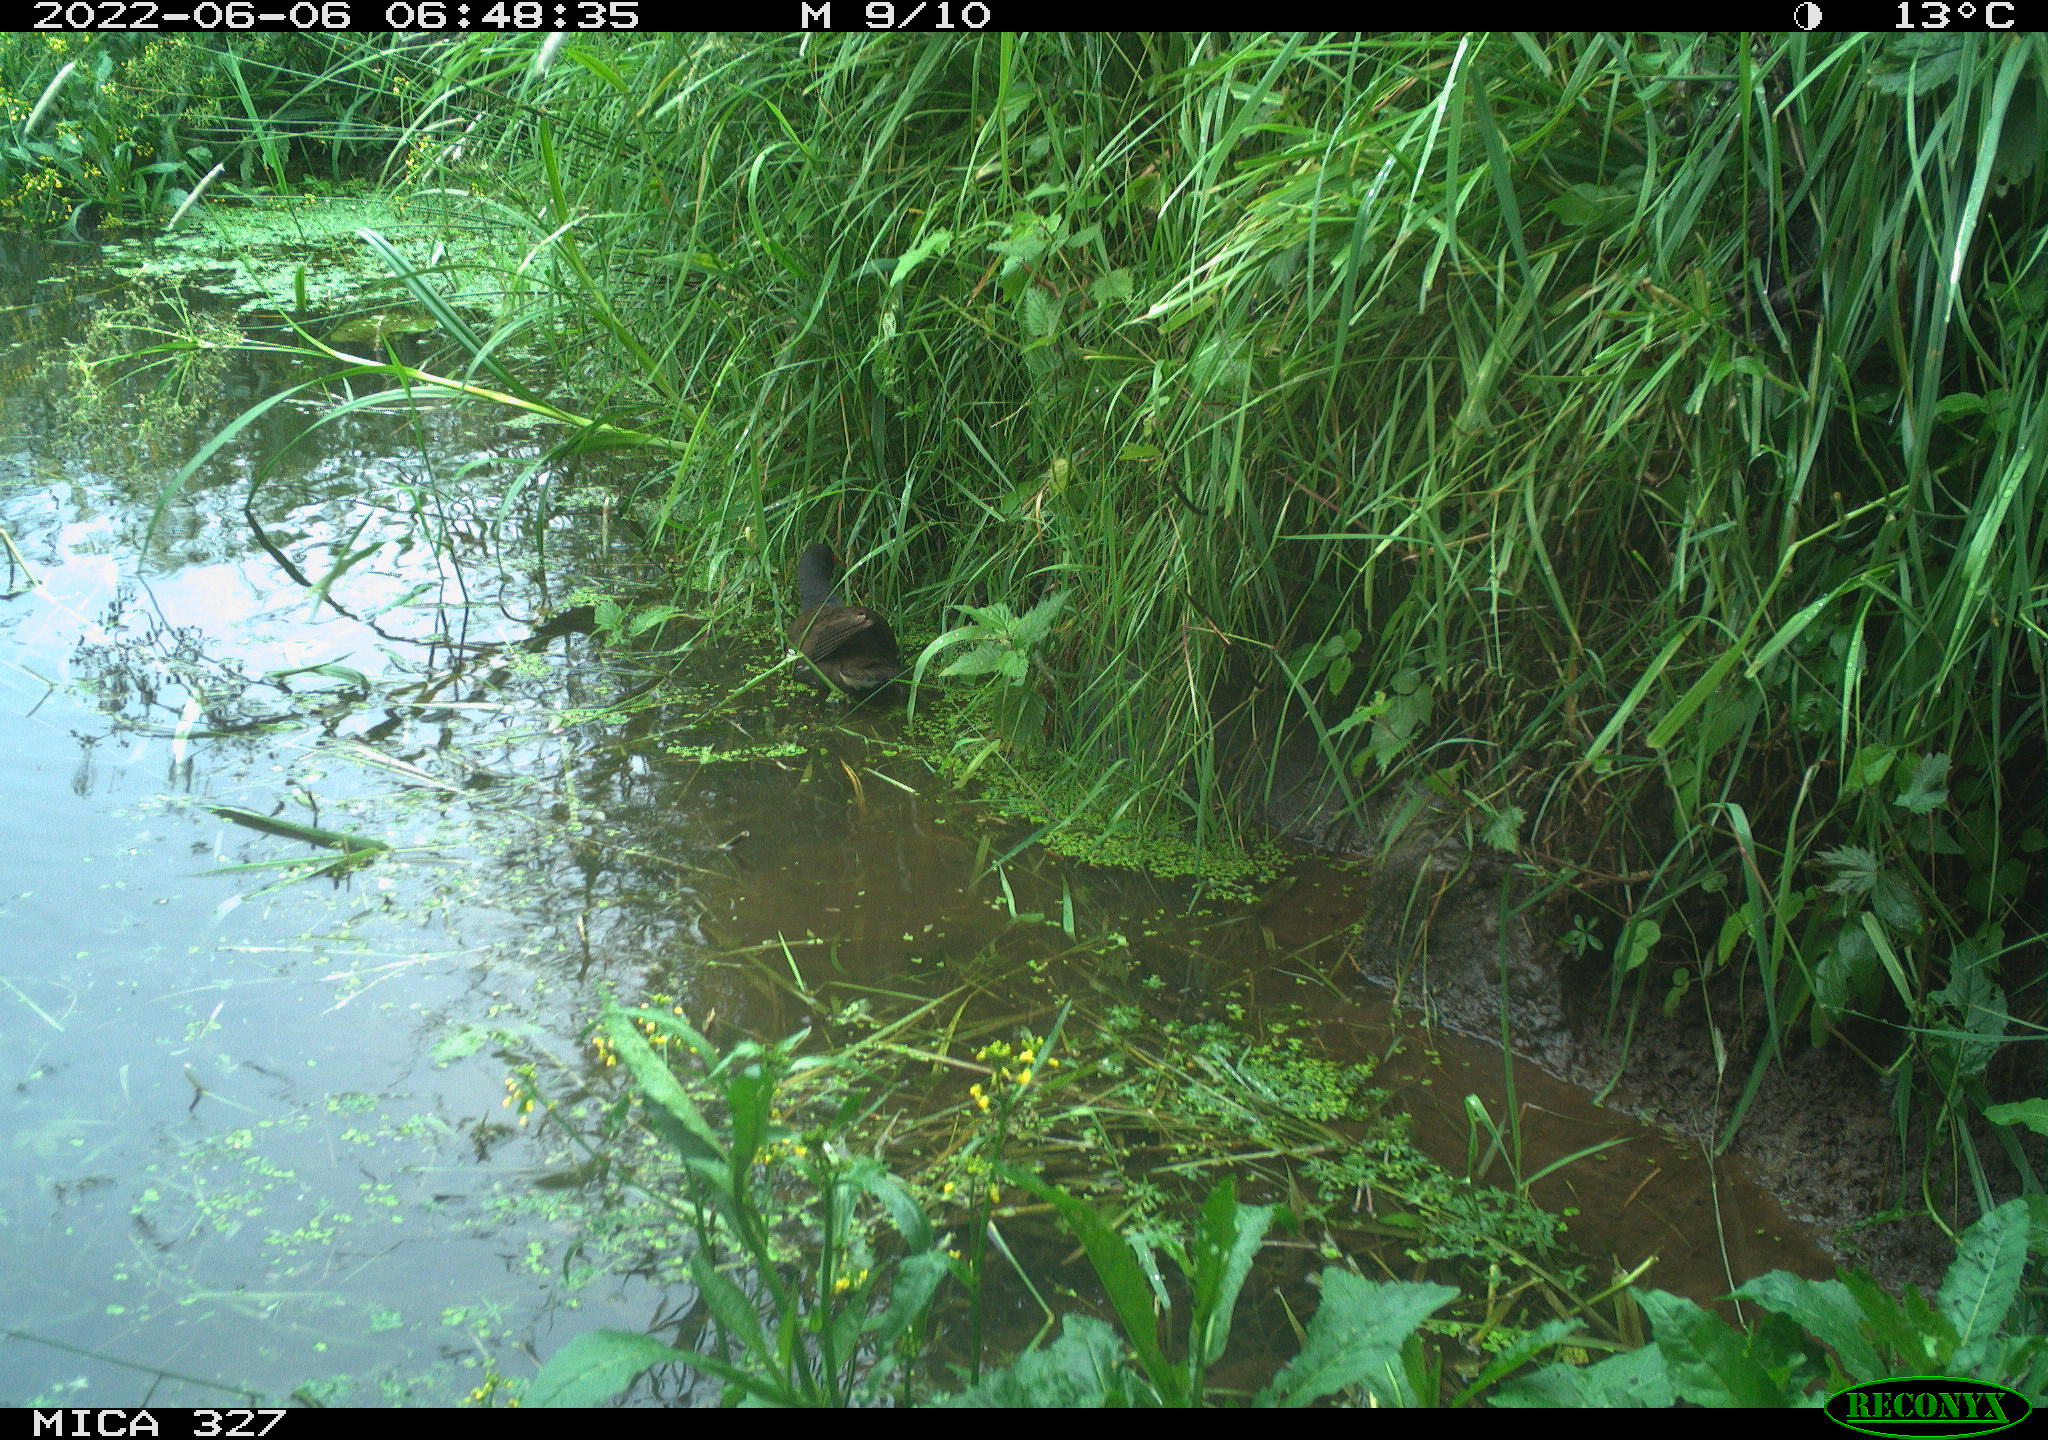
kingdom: Animalia
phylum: Chordata
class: Mammalia
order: Rodentia
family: Muridae
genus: Rattus
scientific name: Rattus norvegicus
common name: Brown rat
